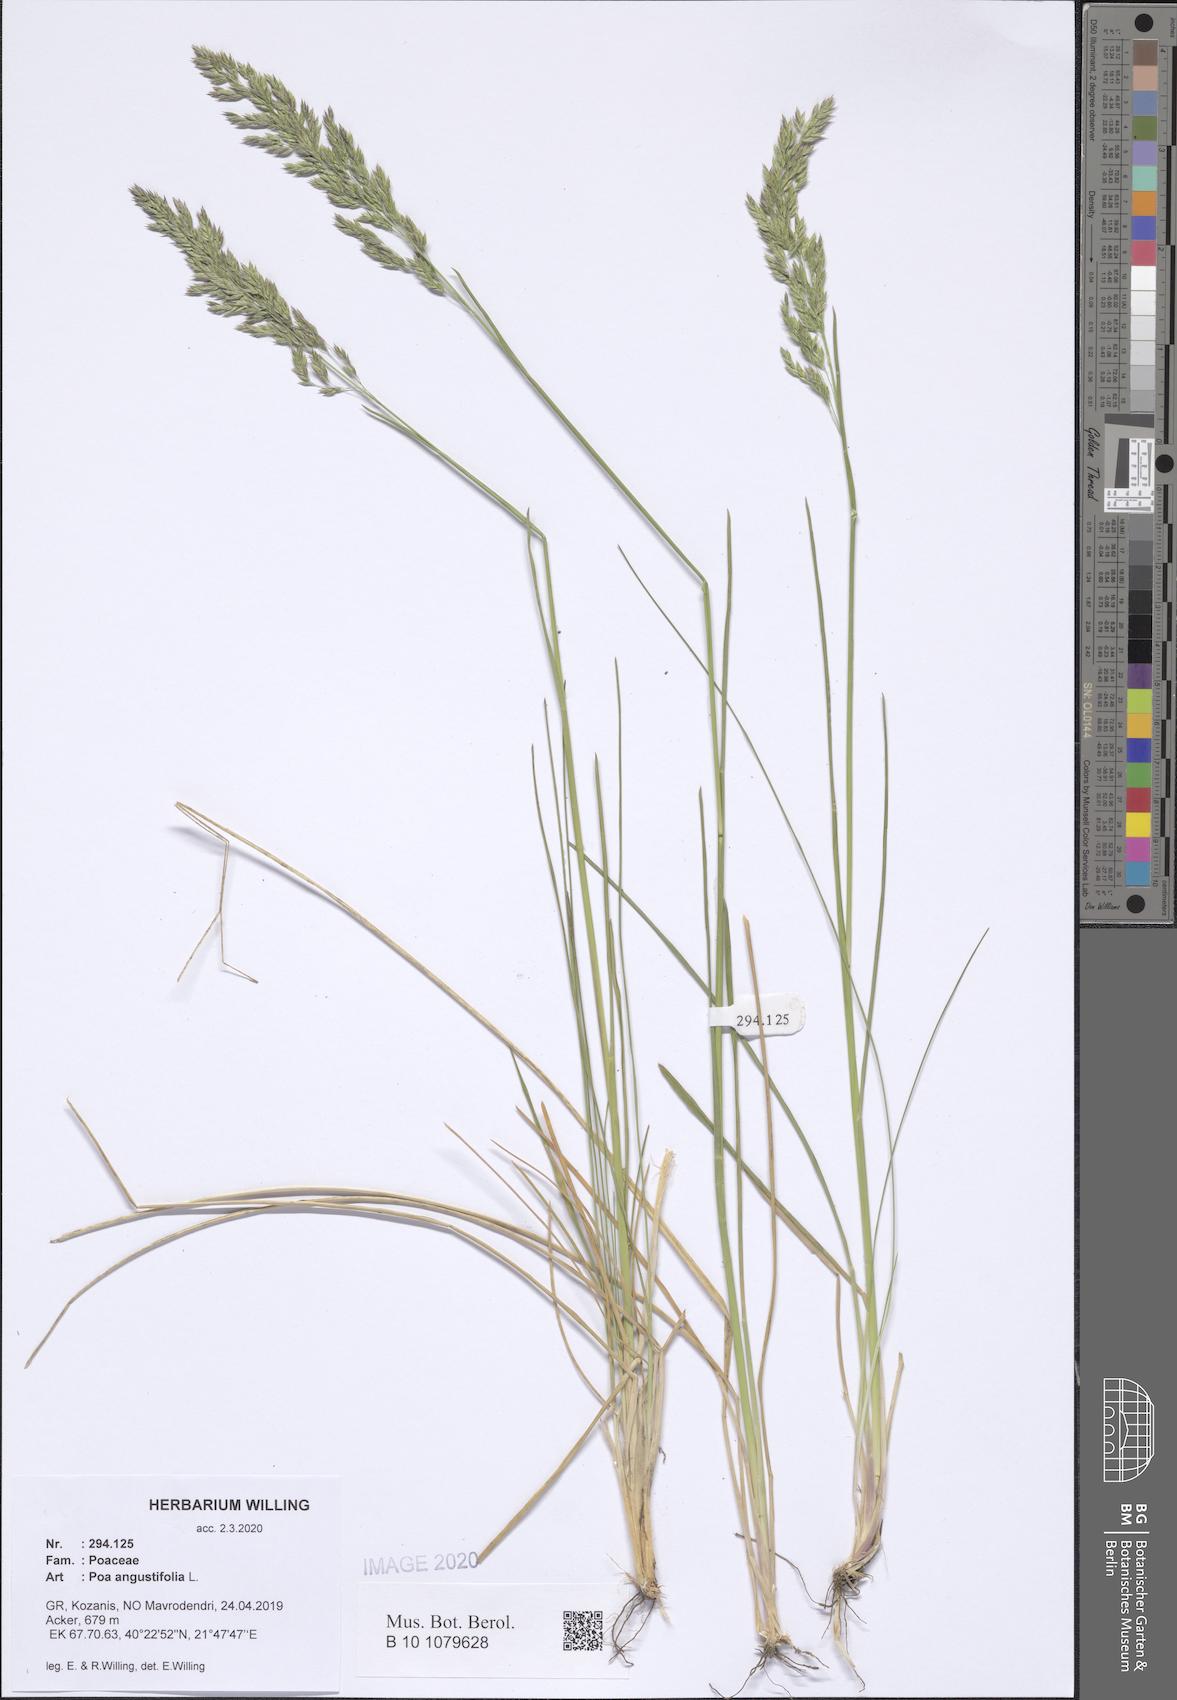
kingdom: Plantae
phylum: Tracheophyta
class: Liliopsida
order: Poales
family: Poaceae
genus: Poa
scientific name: Poa angustifolia
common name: Narrow-leaved meadow-grass
